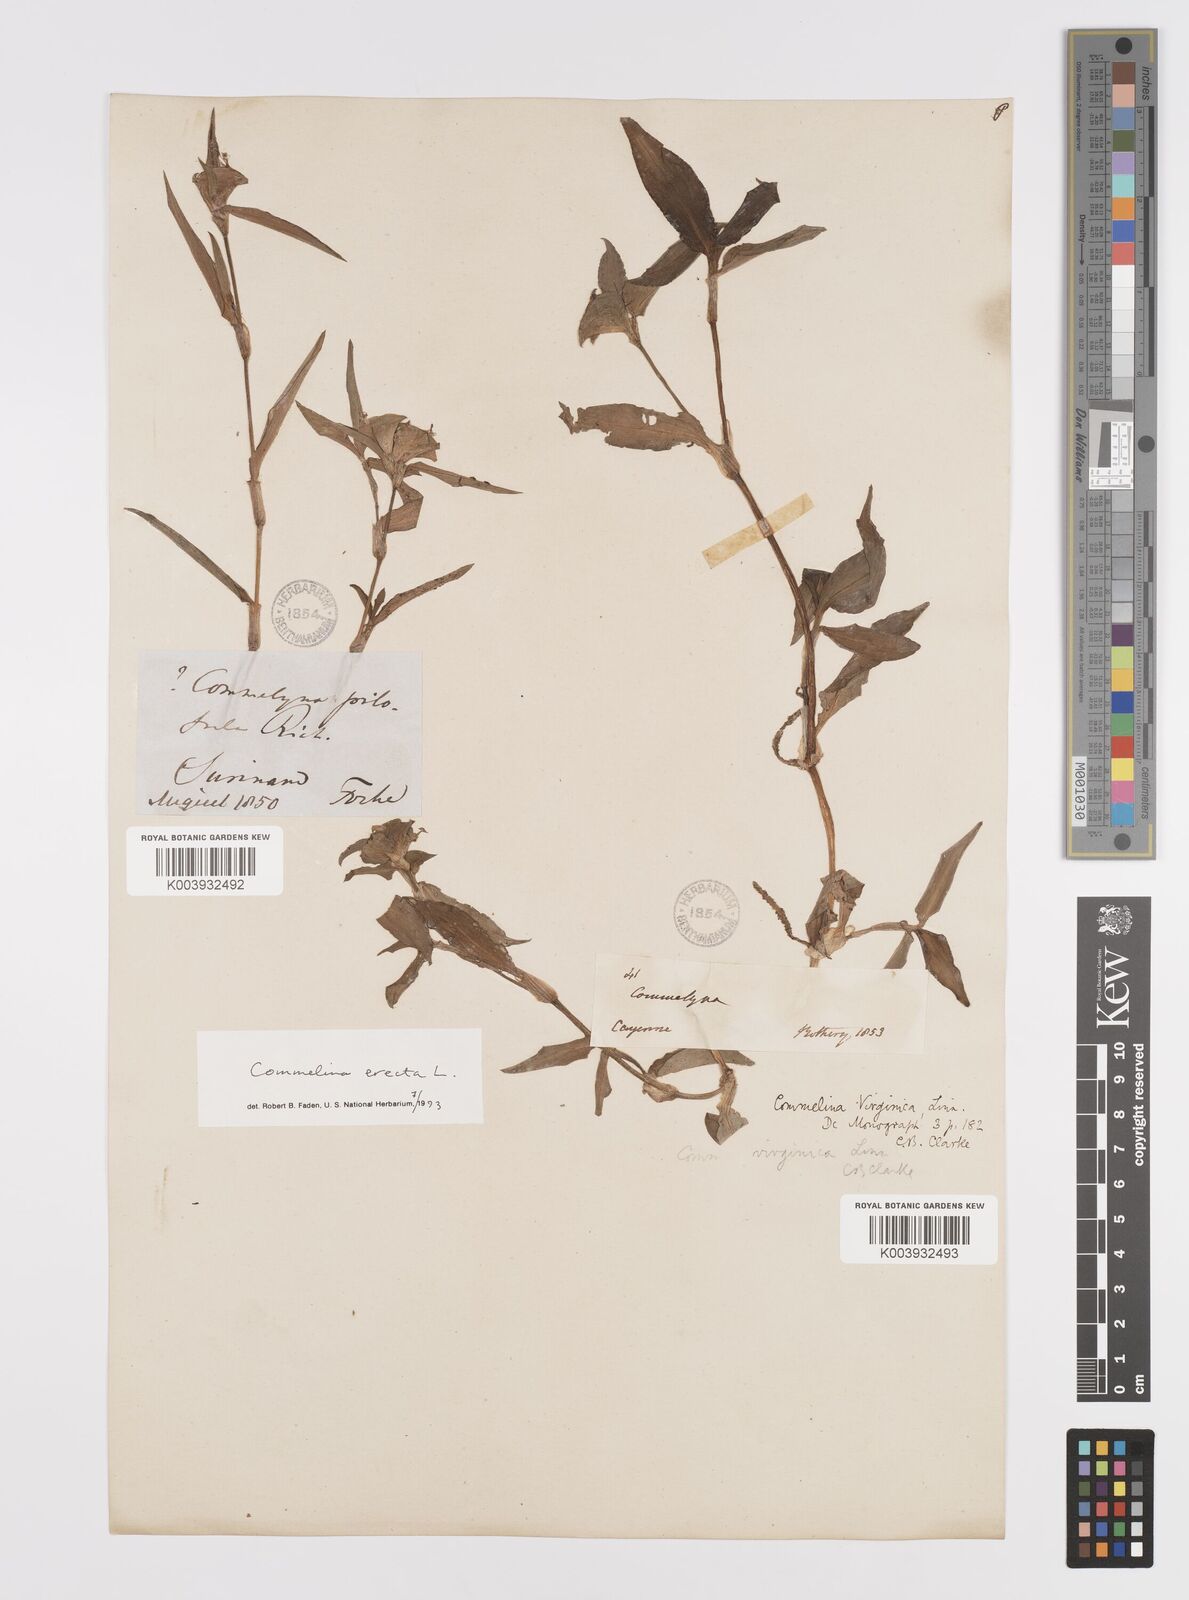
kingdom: Plantae
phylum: Tracheophyta
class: Liliopsida
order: Commelinales
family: Commelinaceae
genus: Commelina
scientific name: Commelina erecta
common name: Blousel blommetjie
